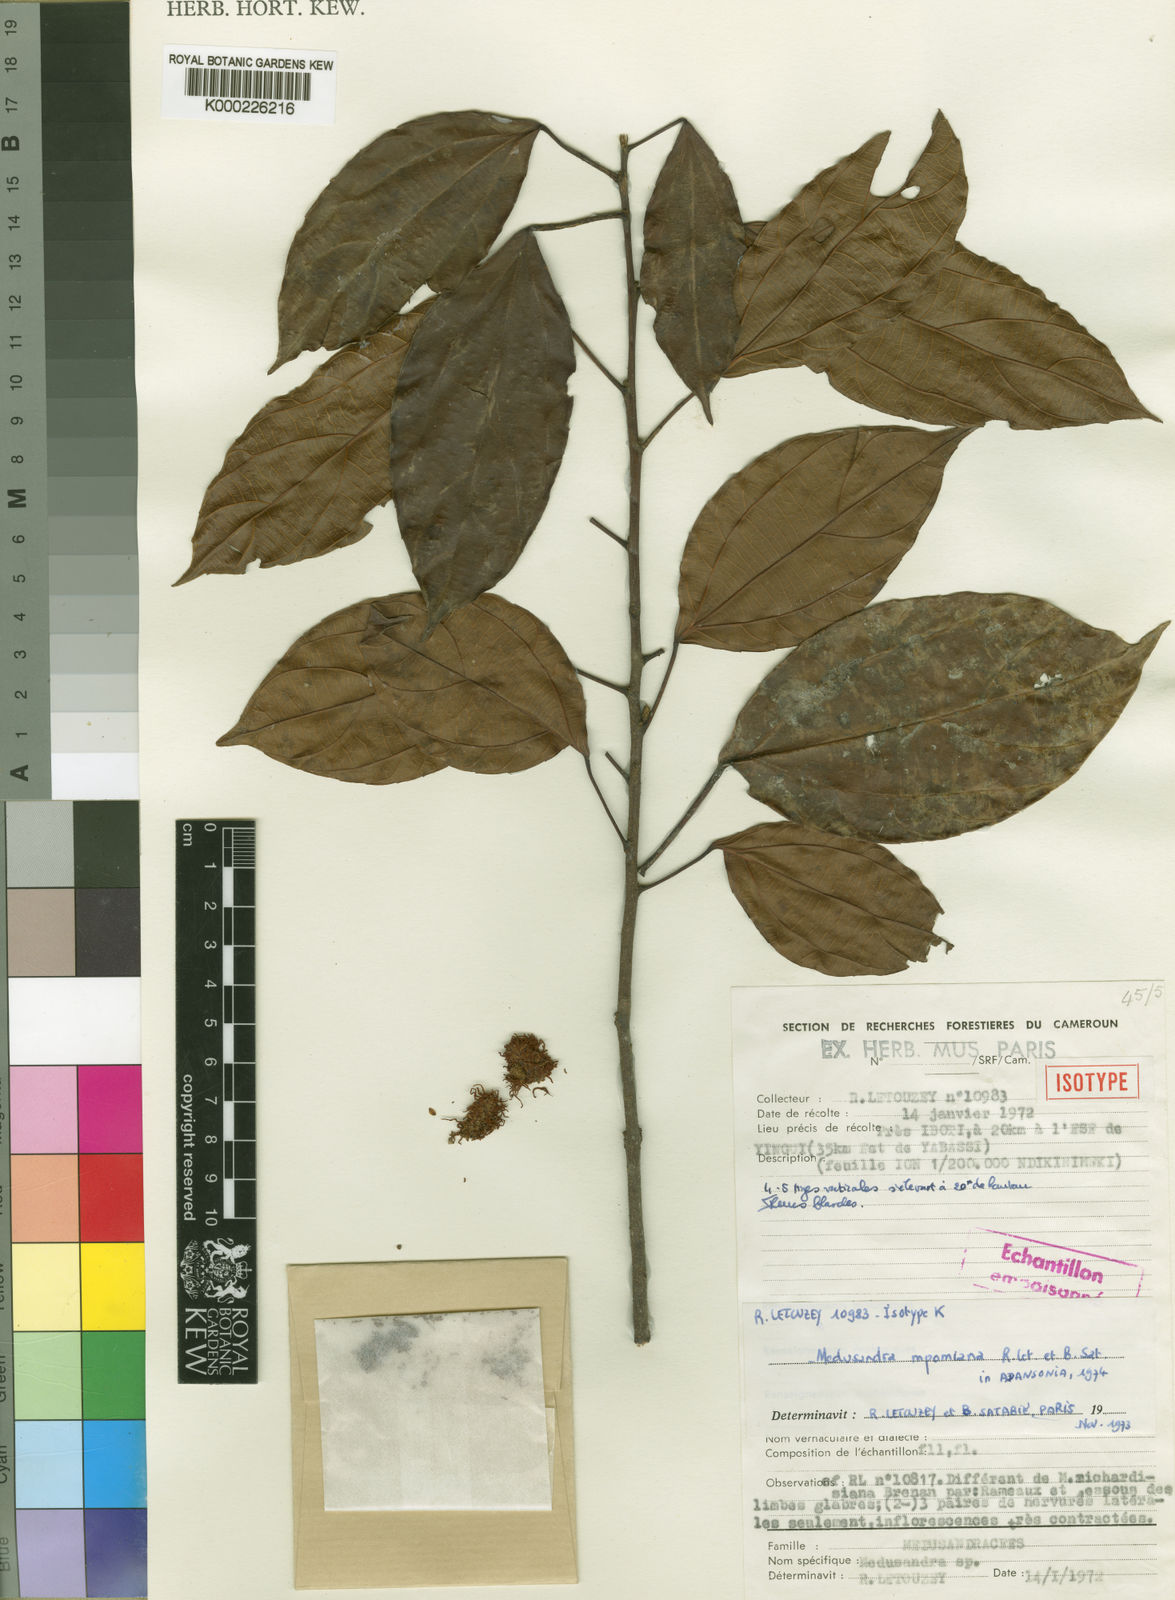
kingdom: Plantae
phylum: Tracheophyta
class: Magnoliopsida
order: Saxifragales
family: Peridiscaceae
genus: Medusandra
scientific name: Medusandra
